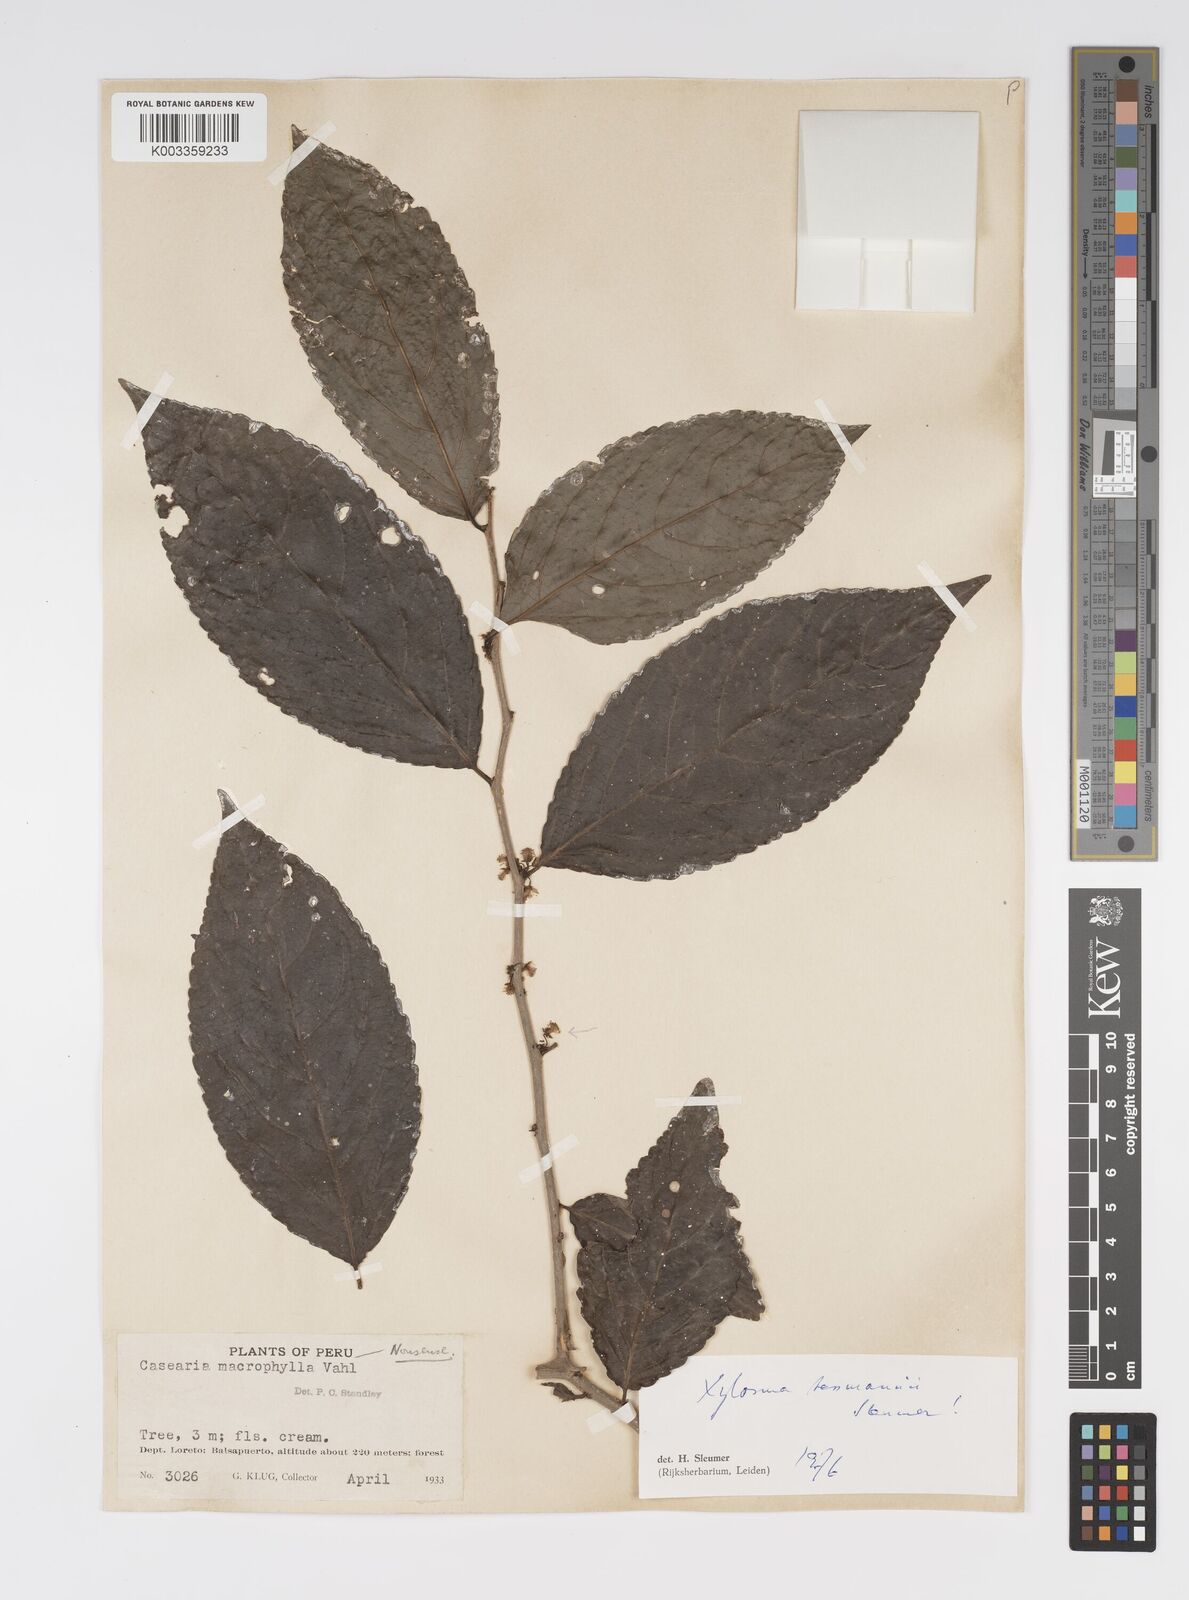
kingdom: Plantae
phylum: Tracheophyta
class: Magnoliopsida
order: Malpighiales
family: Salicaceae
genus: Xylosma
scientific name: Xylosma tessmannii
